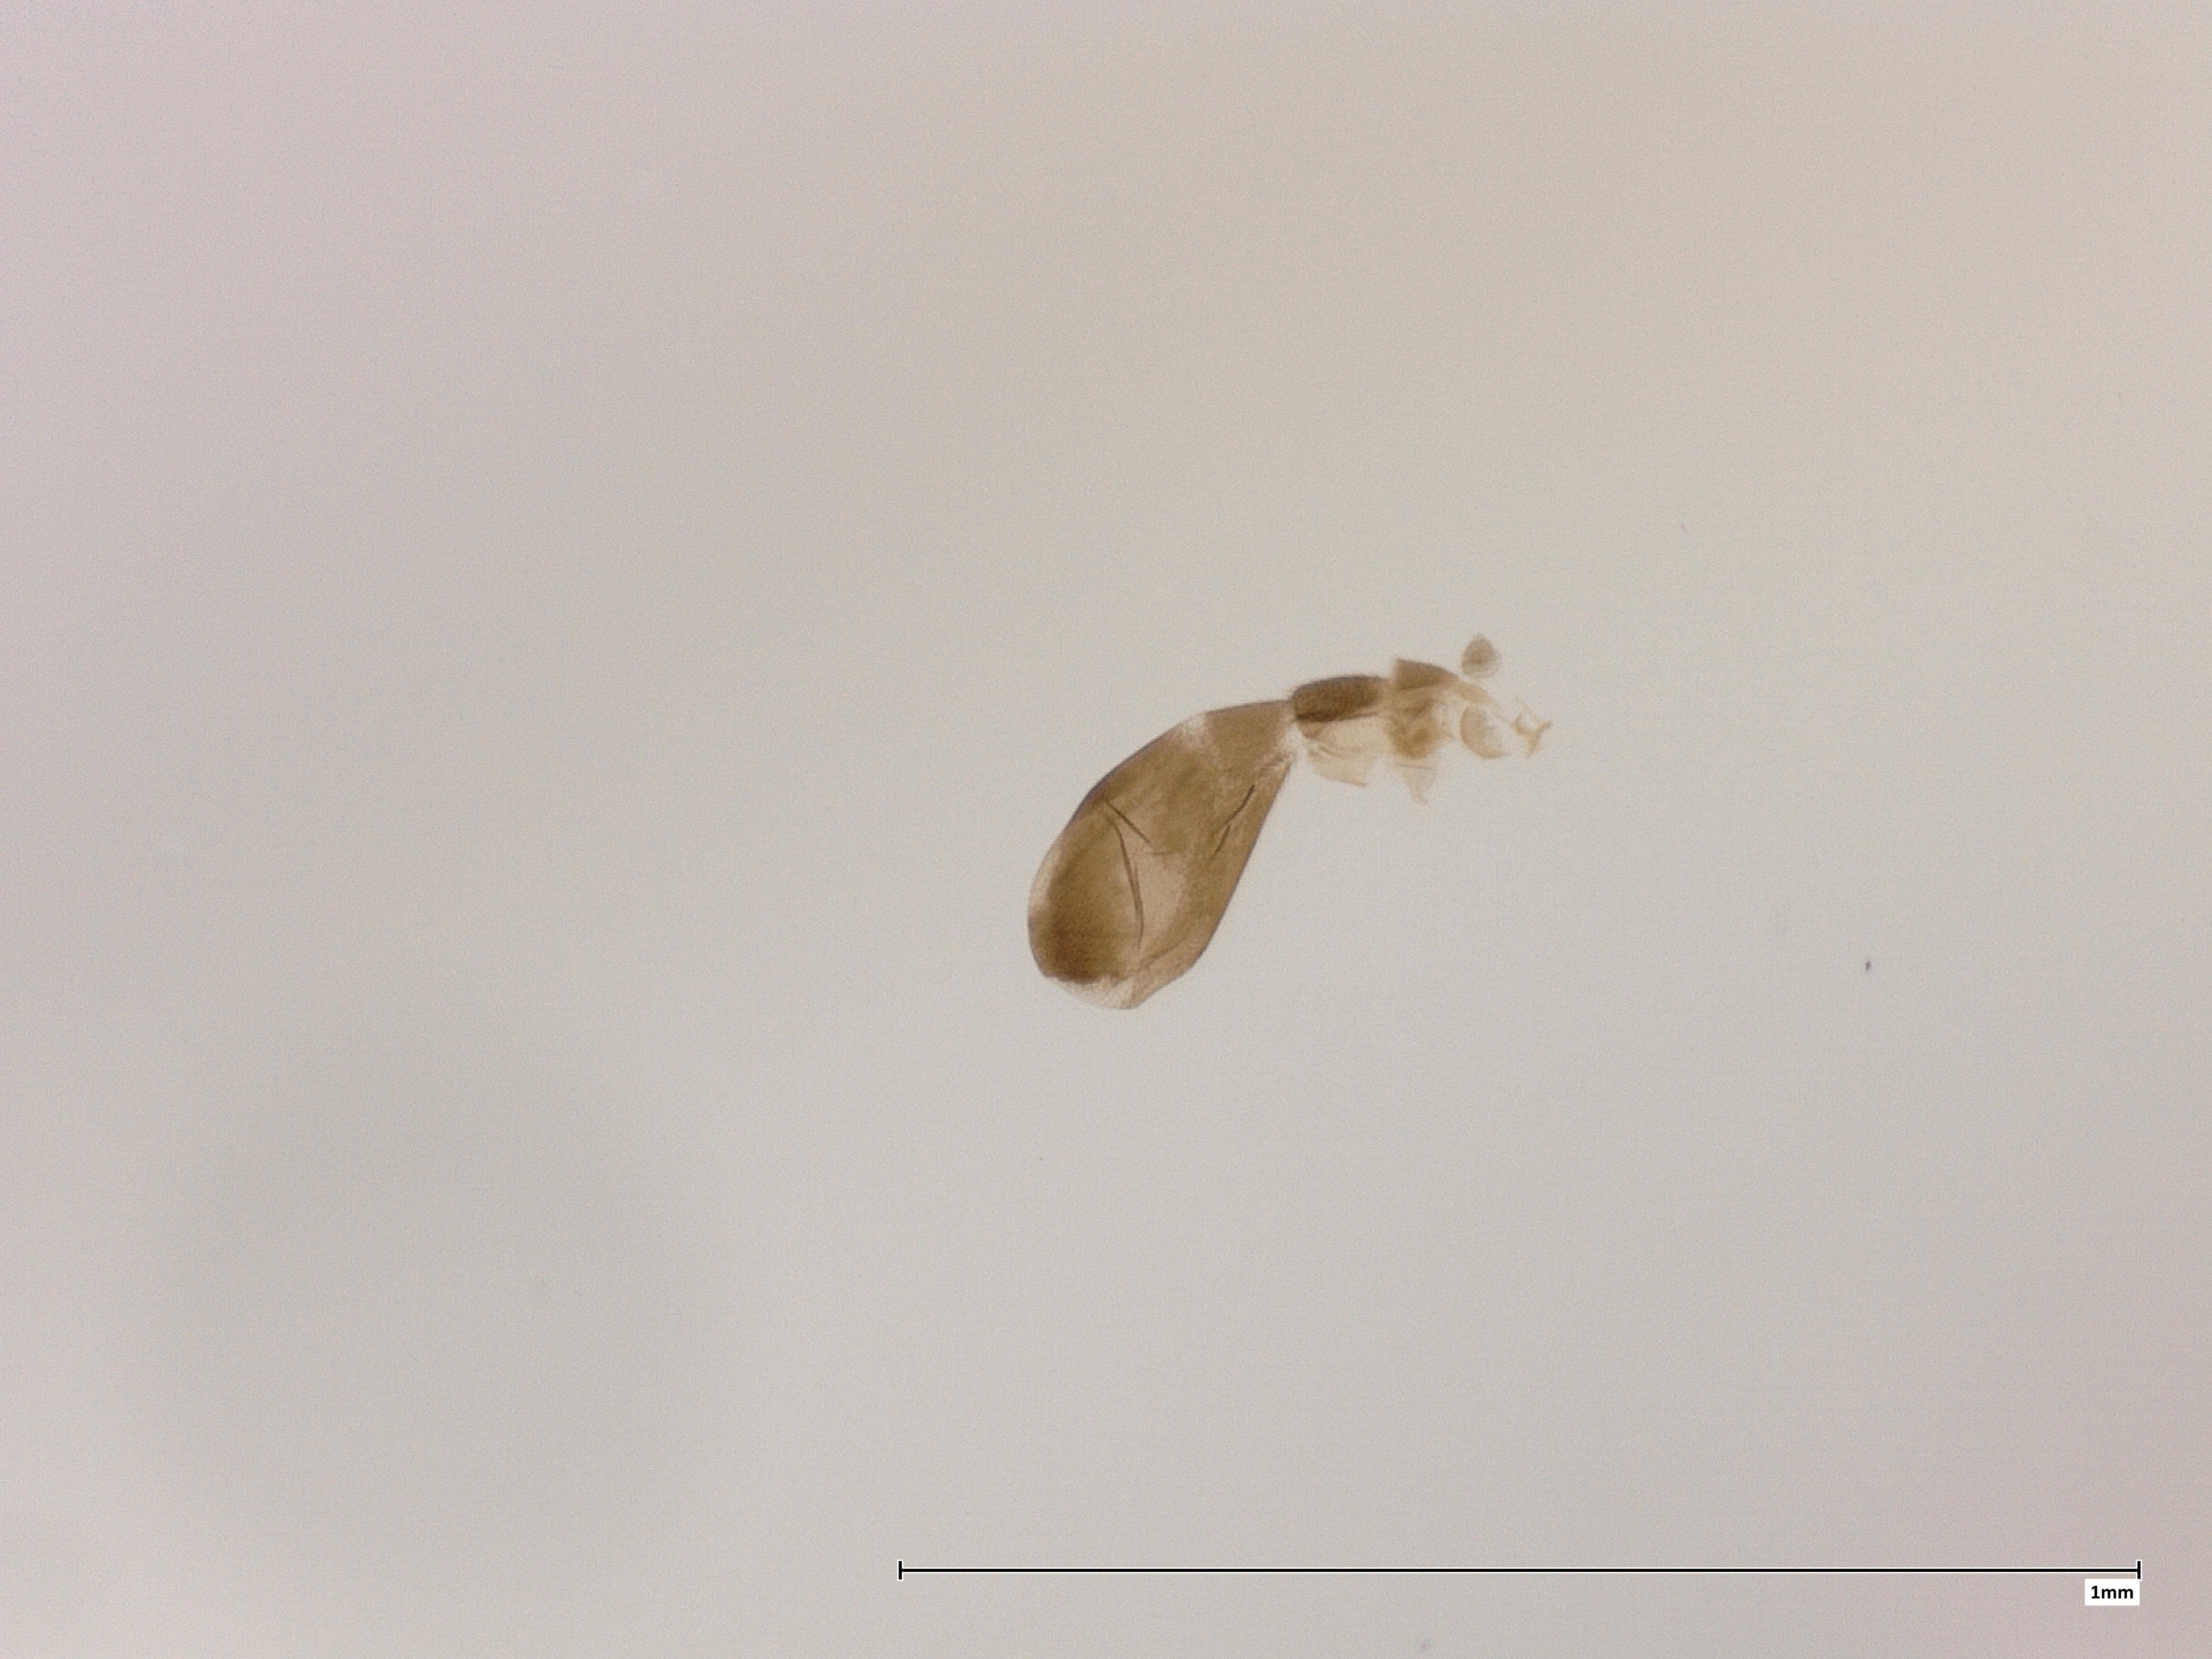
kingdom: Animalia
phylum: Arthropoda
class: Insecta
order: Diptera
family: Phoridae
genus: Megaselia
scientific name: Megaselia pulicaria
